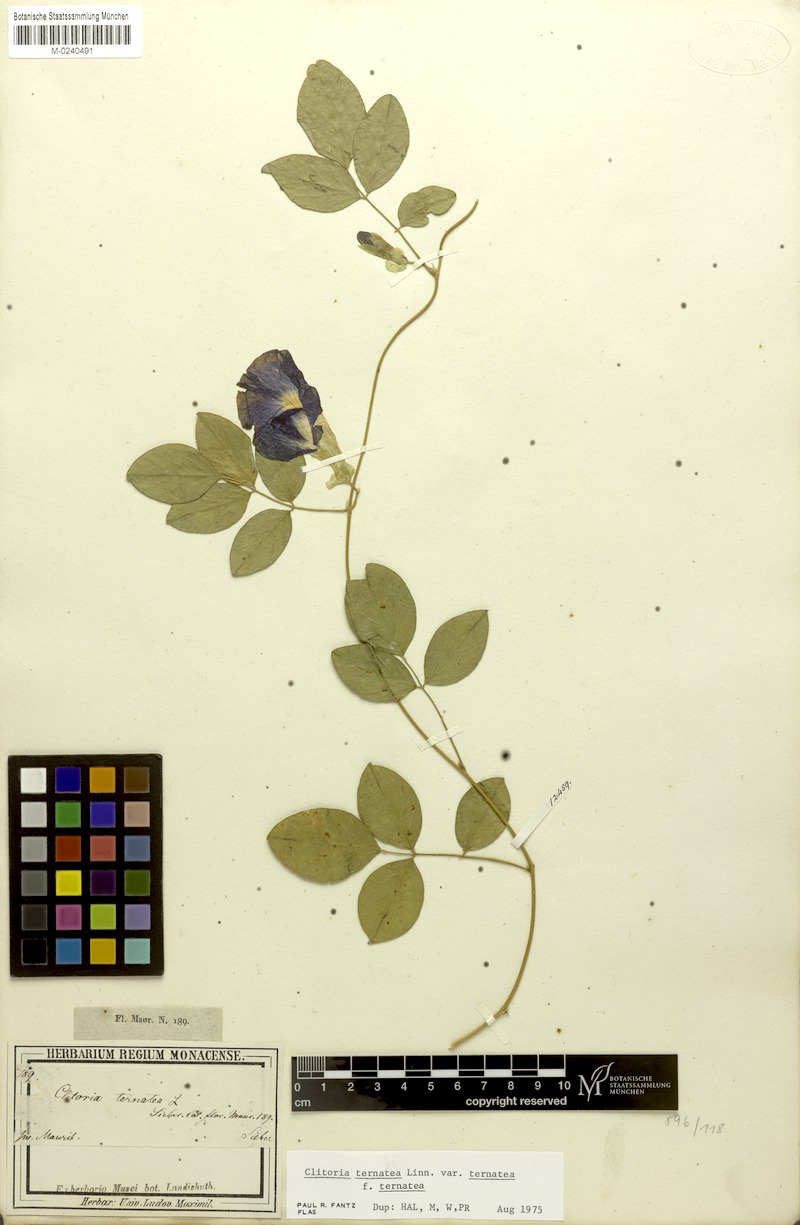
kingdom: Plantae
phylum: Tracheophyta
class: Magnoliopsida
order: Fabales
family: Fabaceae
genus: Clitoria
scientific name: Clitoria ternatea
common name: Asian pigeonwings
